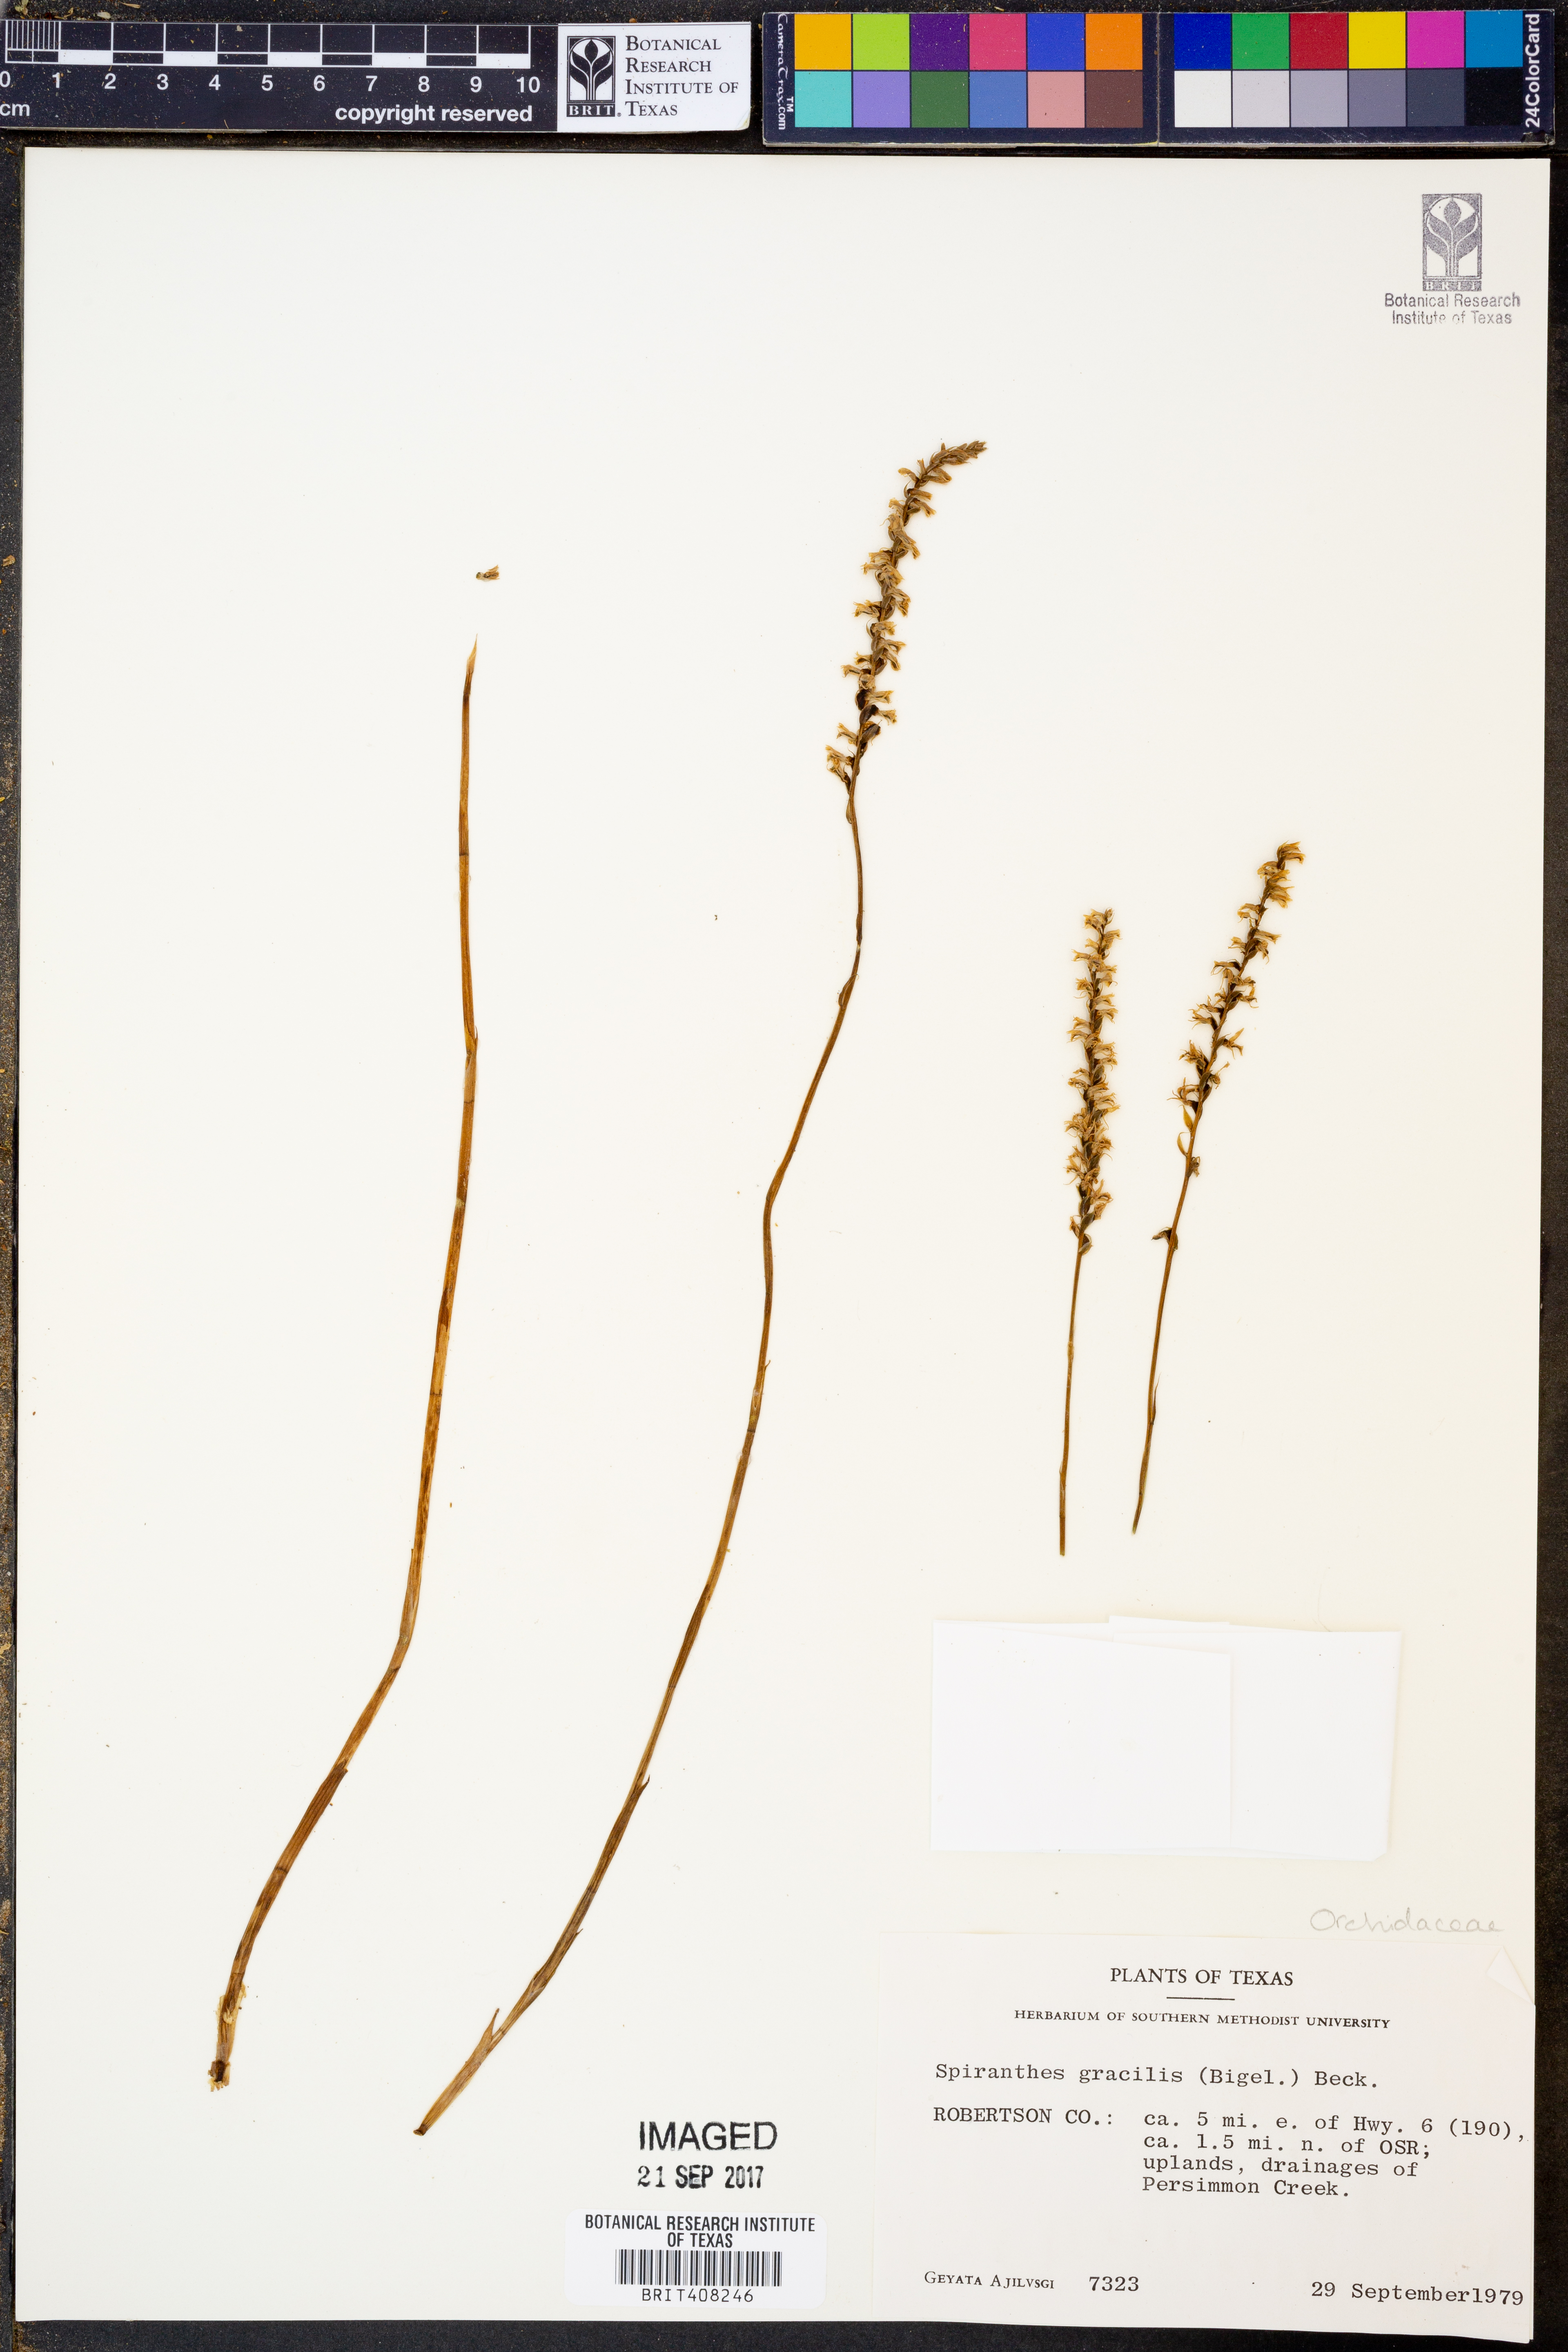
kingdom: Plantae
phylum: Tracheophyta
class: Liliopsida
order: Asparagales
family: Orchidaceae
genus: Spiranthes
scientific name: Spiranthes lacera
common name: Northern slender ladies'-tresses
